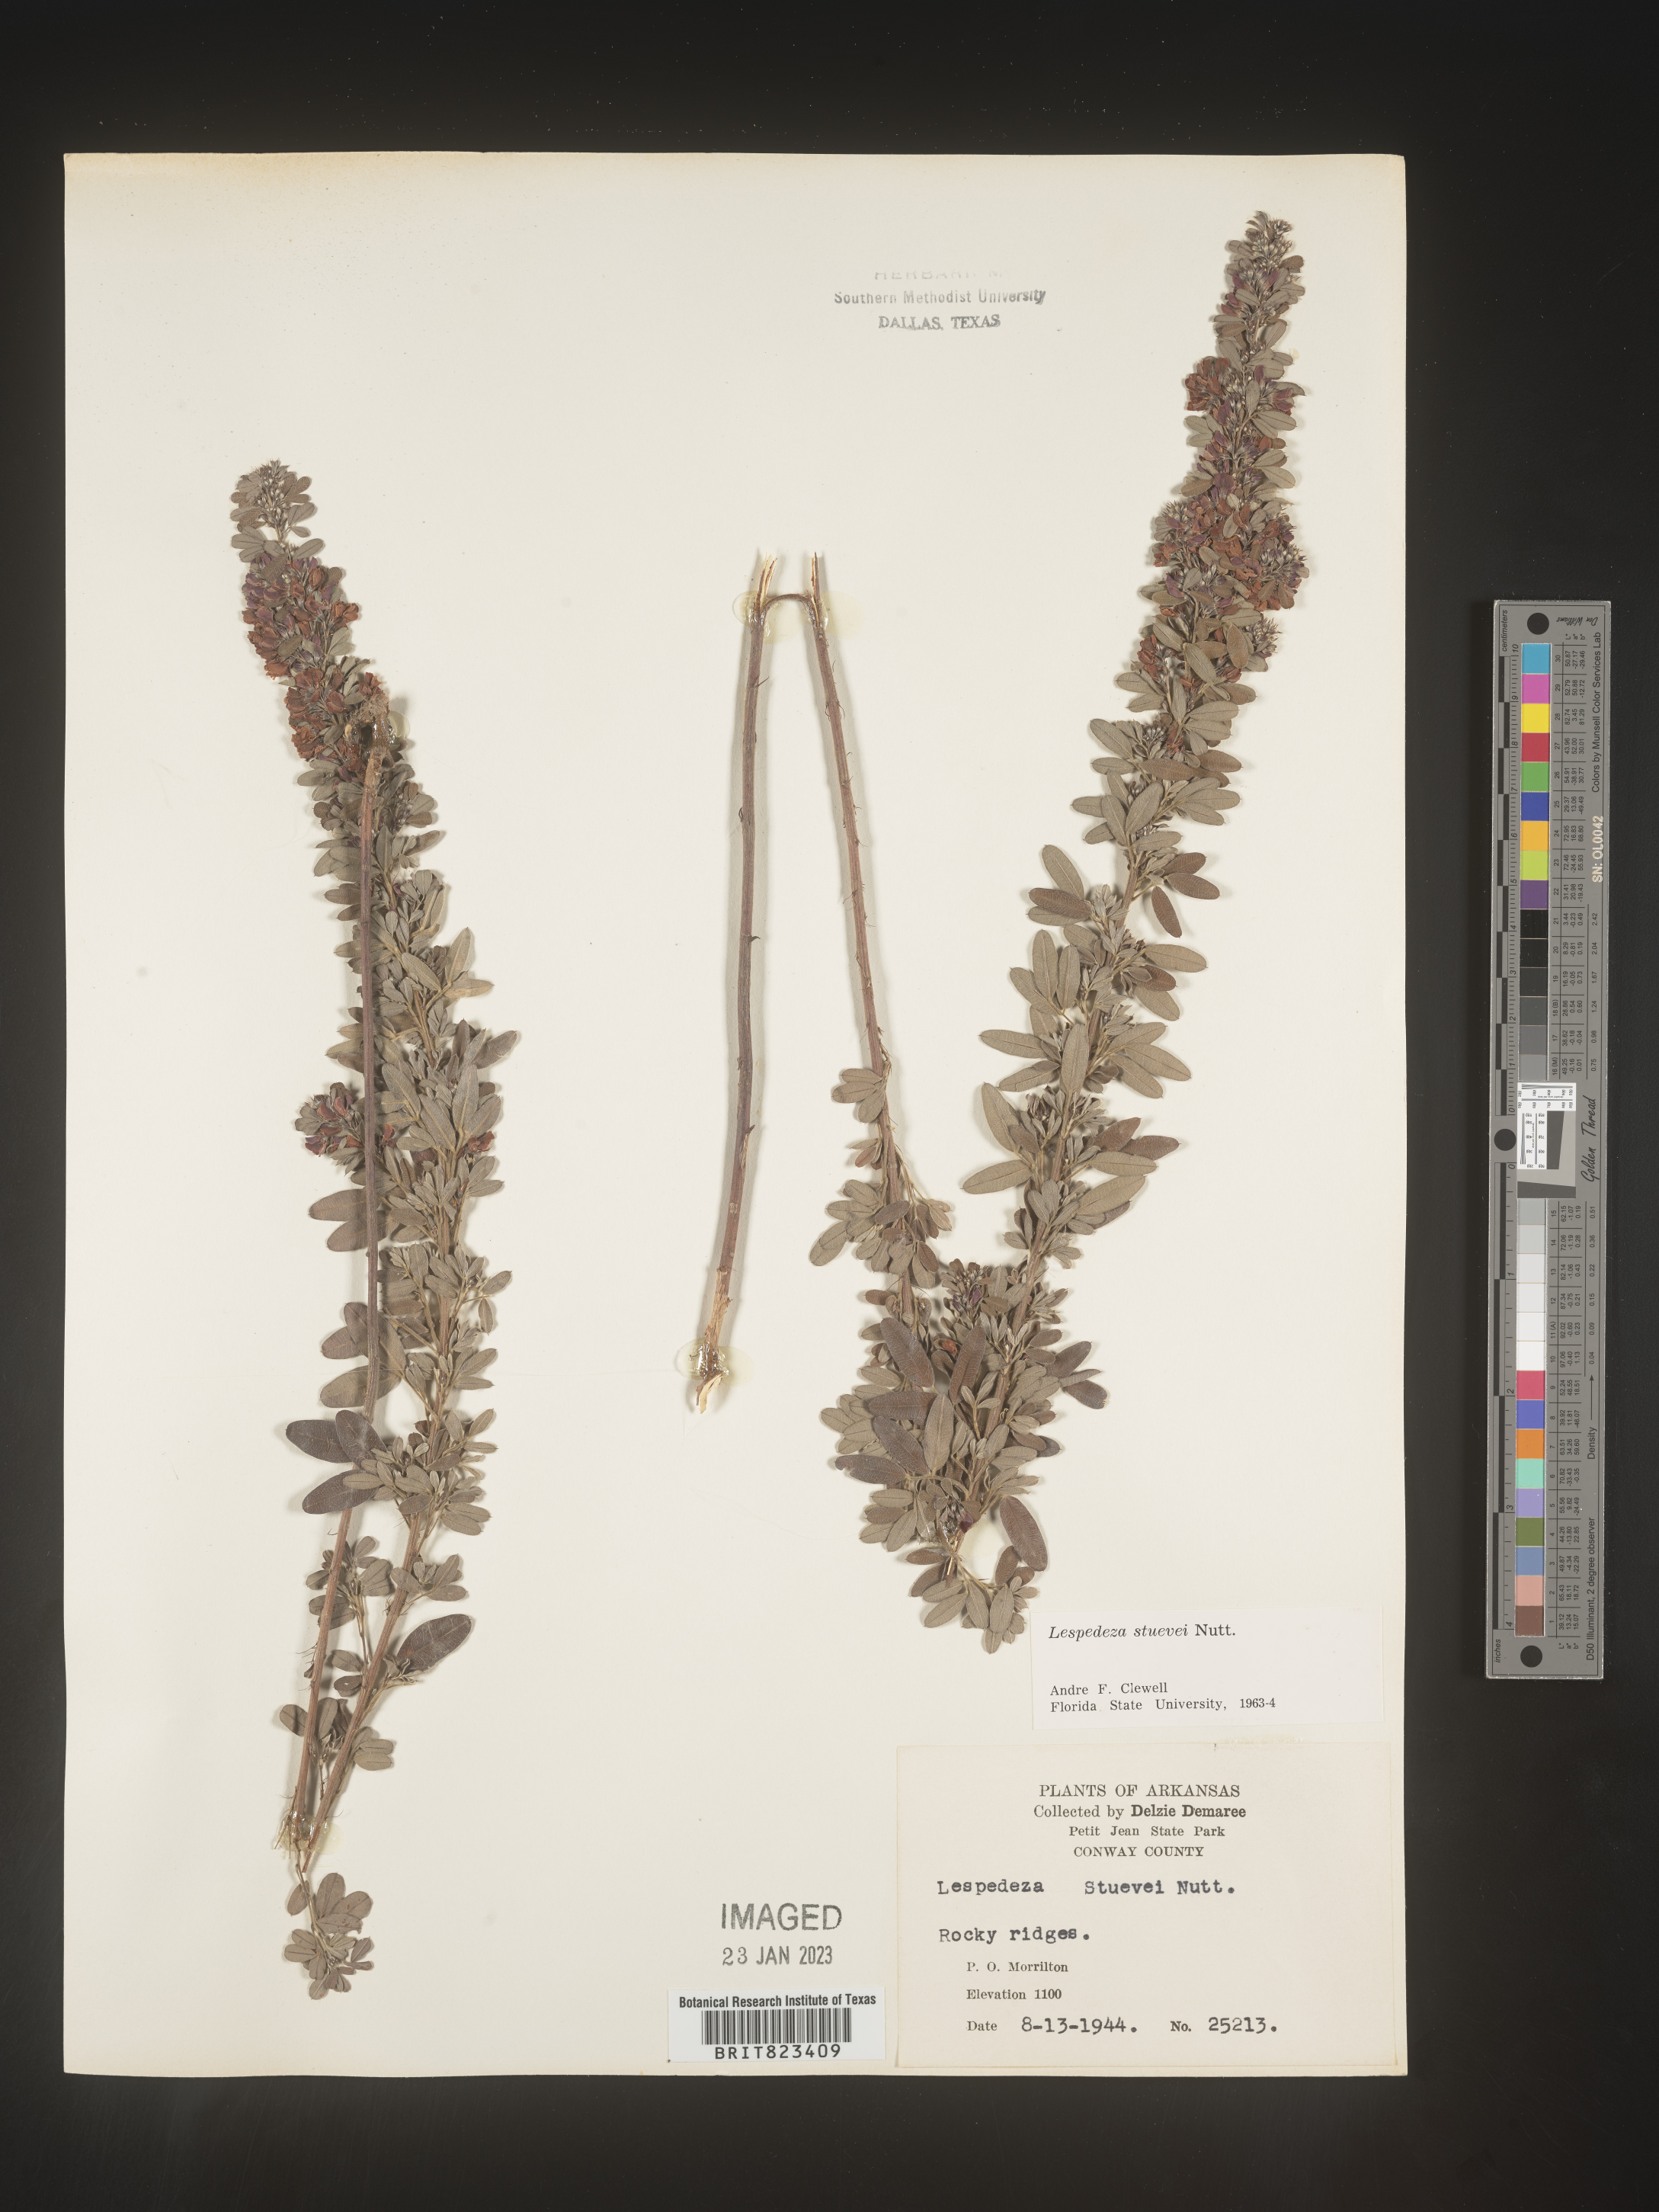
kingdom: Plantae
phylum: Tracheophyta
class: Magnoliopsida
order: Fabales
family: Fabaceae
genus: Lespedeza
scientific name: Lespedeza stuevei
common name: Tall bush-clover
